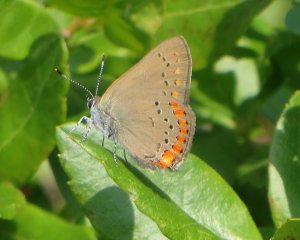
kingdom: Animalia
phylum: Arthropoda
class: Insecta
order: Lepidoptera
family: Lycaenidae
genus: Harkenclenus
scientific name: Harkenclenus titus
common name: Coral Hairstreak
